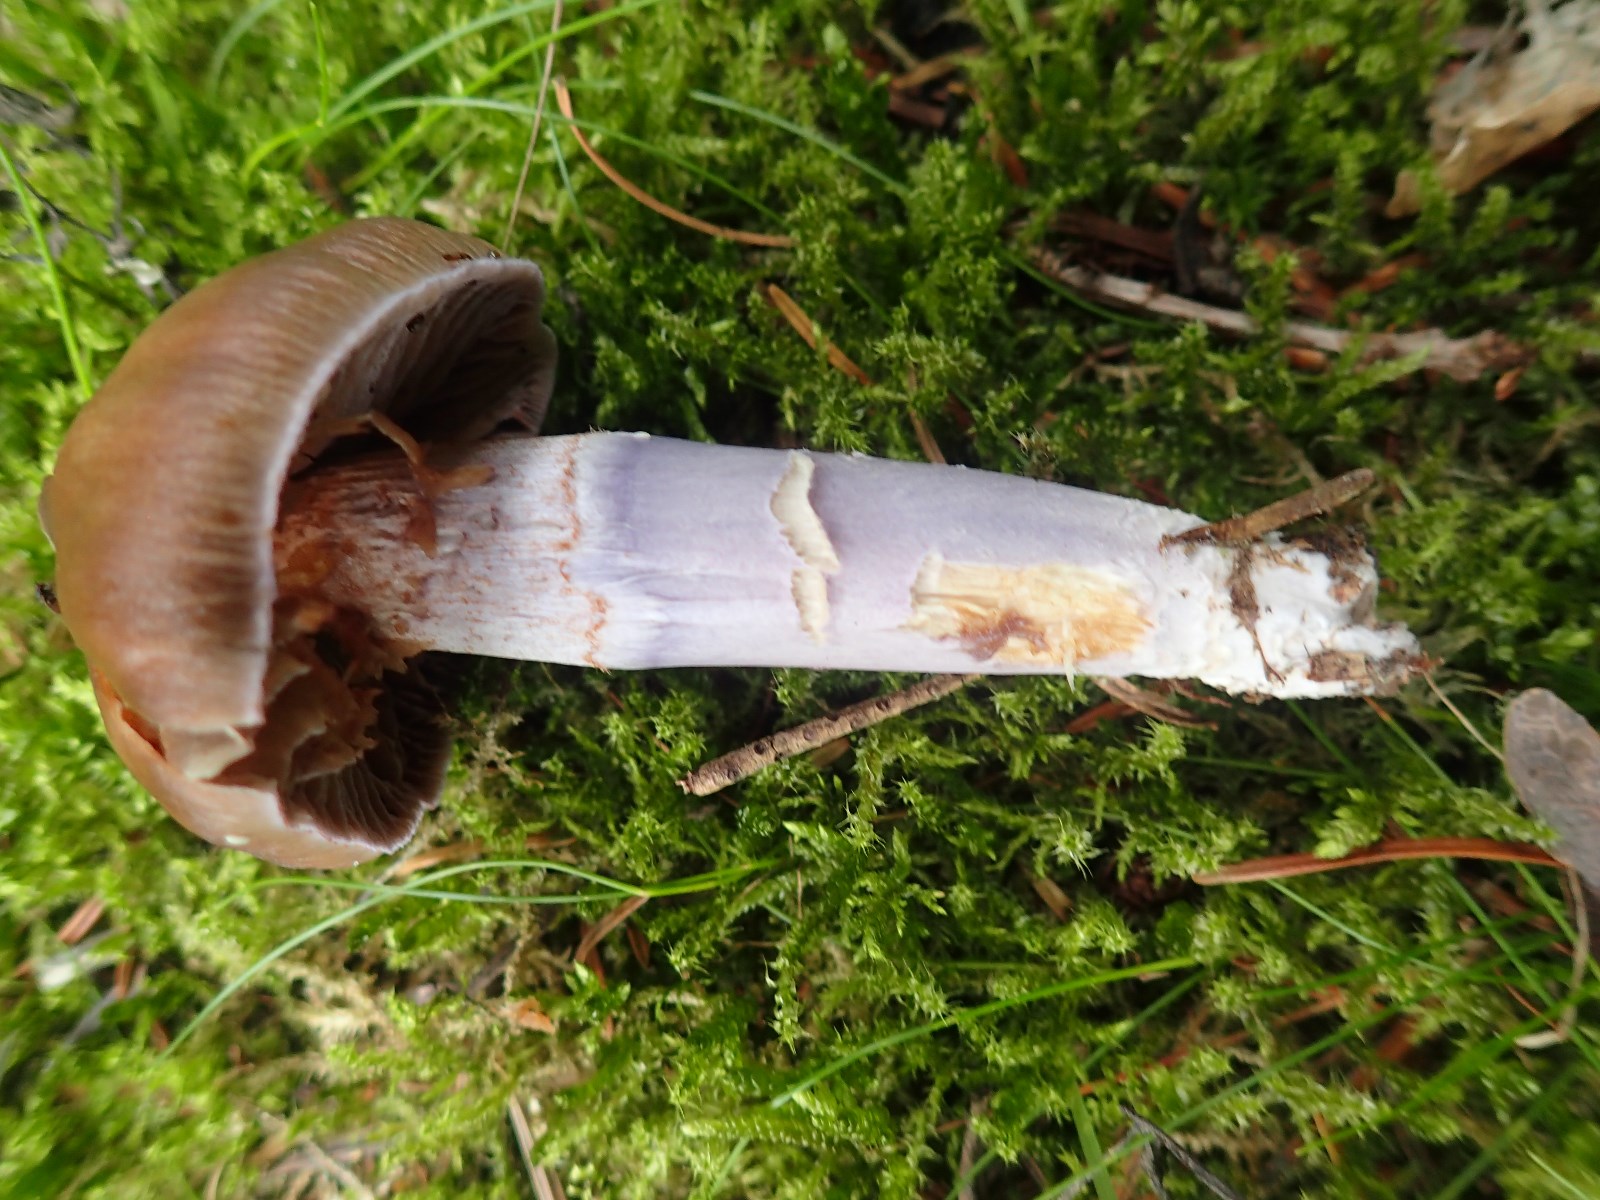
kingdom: Fungi
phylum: Basidiomycota
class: Agaricomycetes
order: Agaricales
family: Cortinariaceae
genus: Cortinarius
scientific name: Cortinarius elatior
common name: høj slørhat
